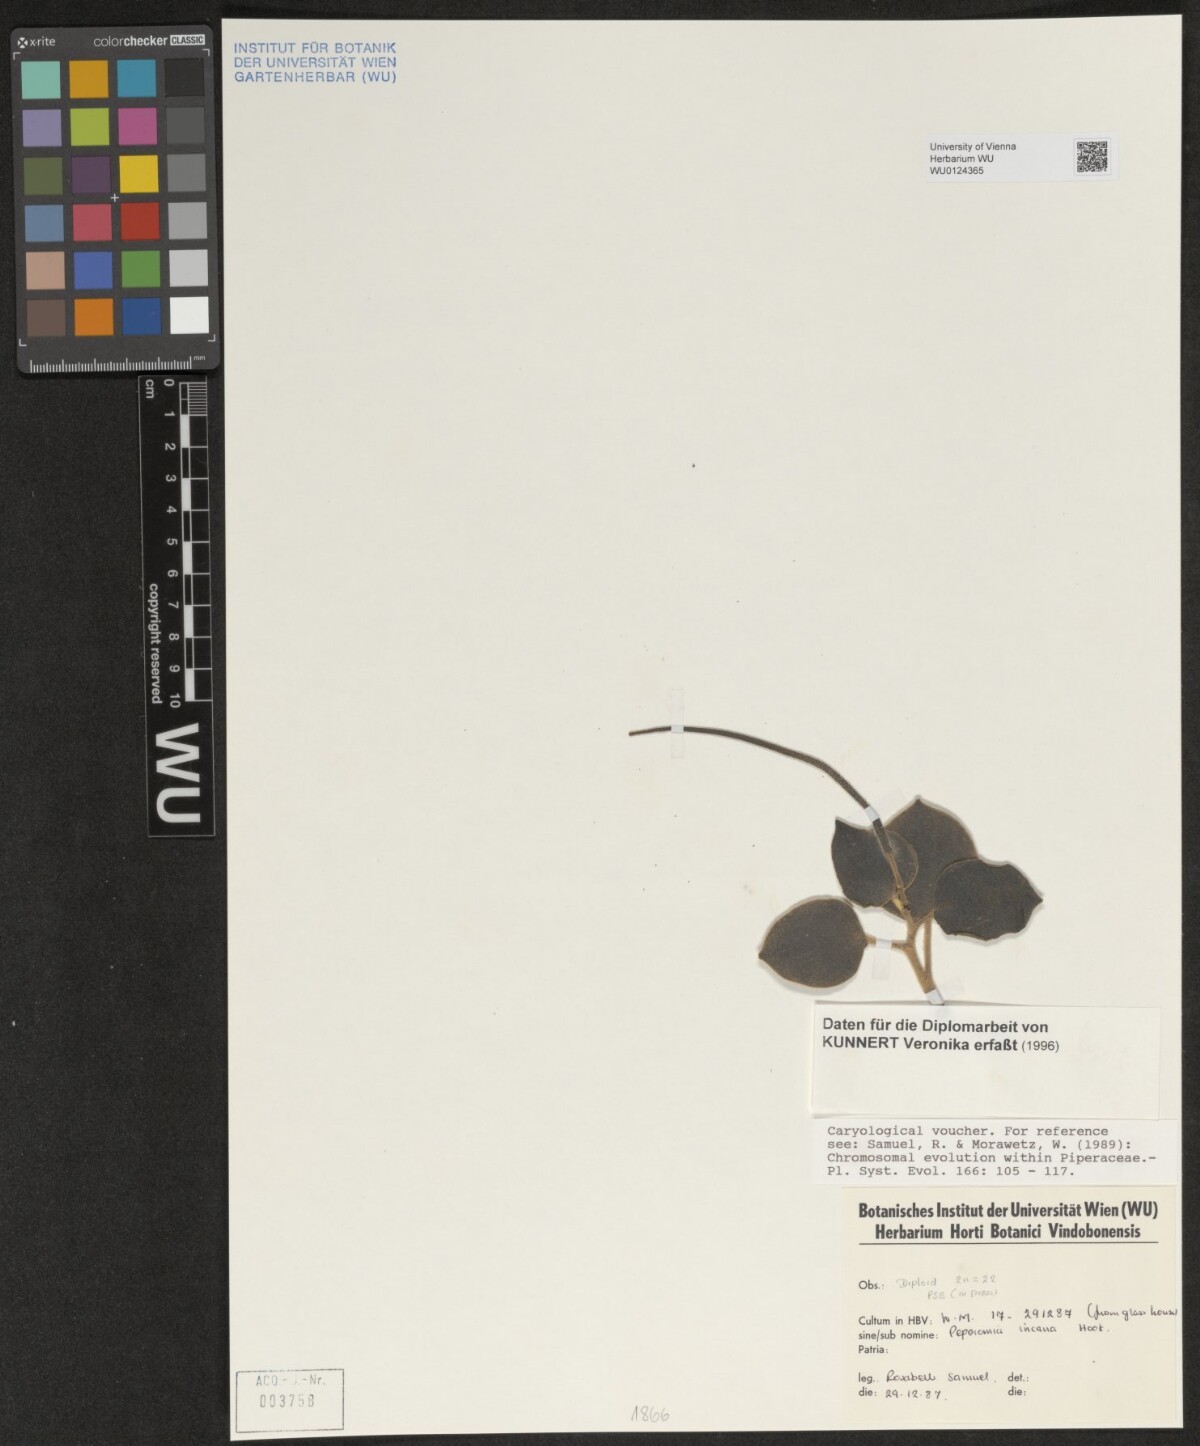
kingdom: Plantae
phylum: Tracheophyta
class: Magnoliopsida
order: Piperales
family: Piperaceae
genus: Peperomia
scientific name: Peperomia incana
